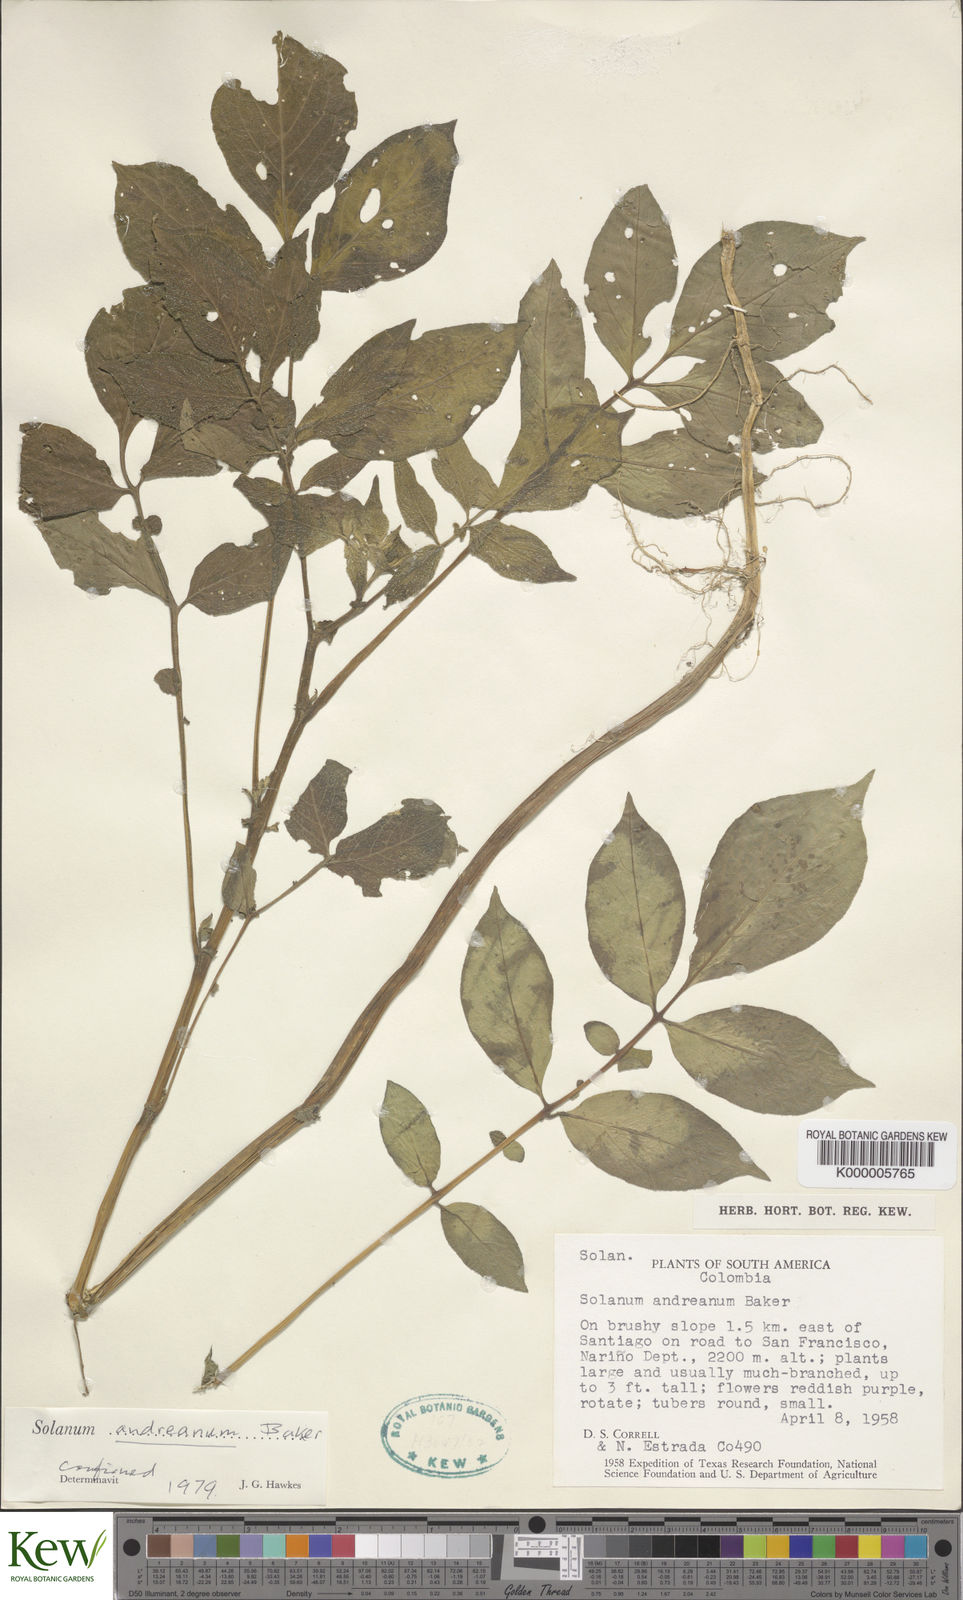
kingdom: Plantae
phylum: Tracheophyta
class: Magnoliopsida
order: Solanales
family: Solanaceae
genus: Solanum
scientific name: Solanum andreanum
